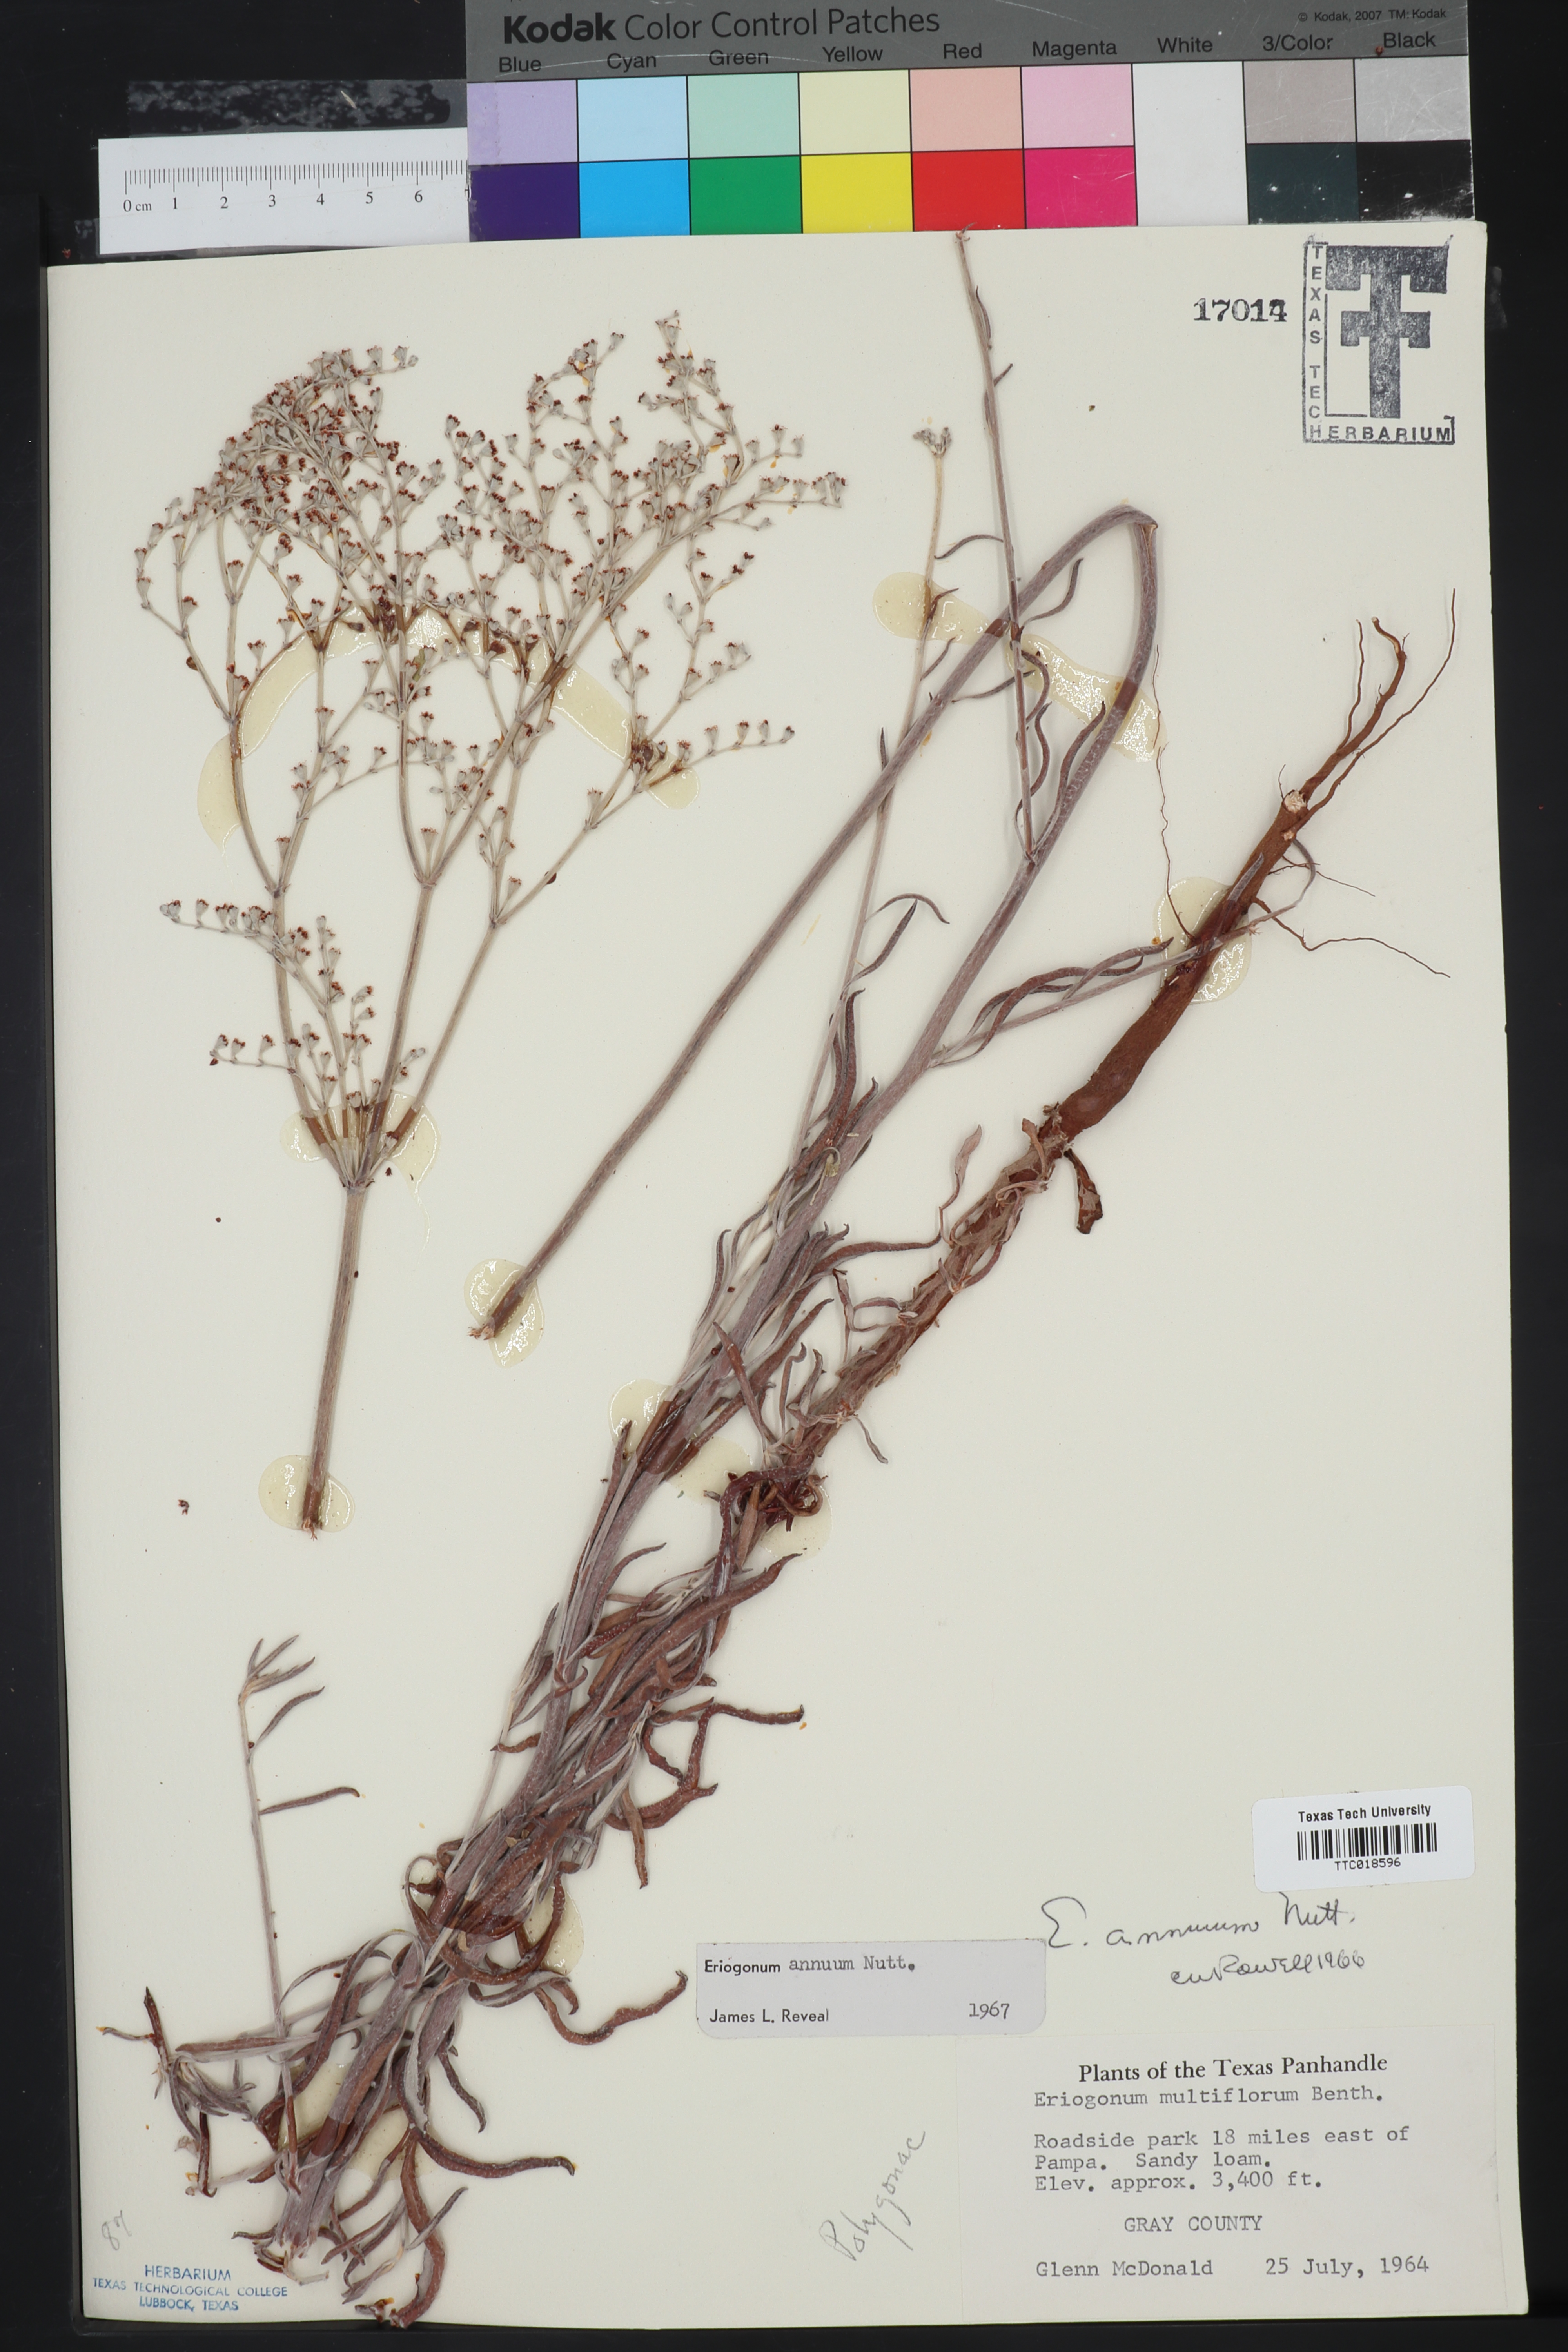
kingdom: Plantae
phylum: Tracheophyta
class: Magnoliopsida
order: Caryophyllales
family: Polygonaceae
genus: Eriogonum
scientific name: Eriogonum annuum
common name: Annual wild buckwheat
